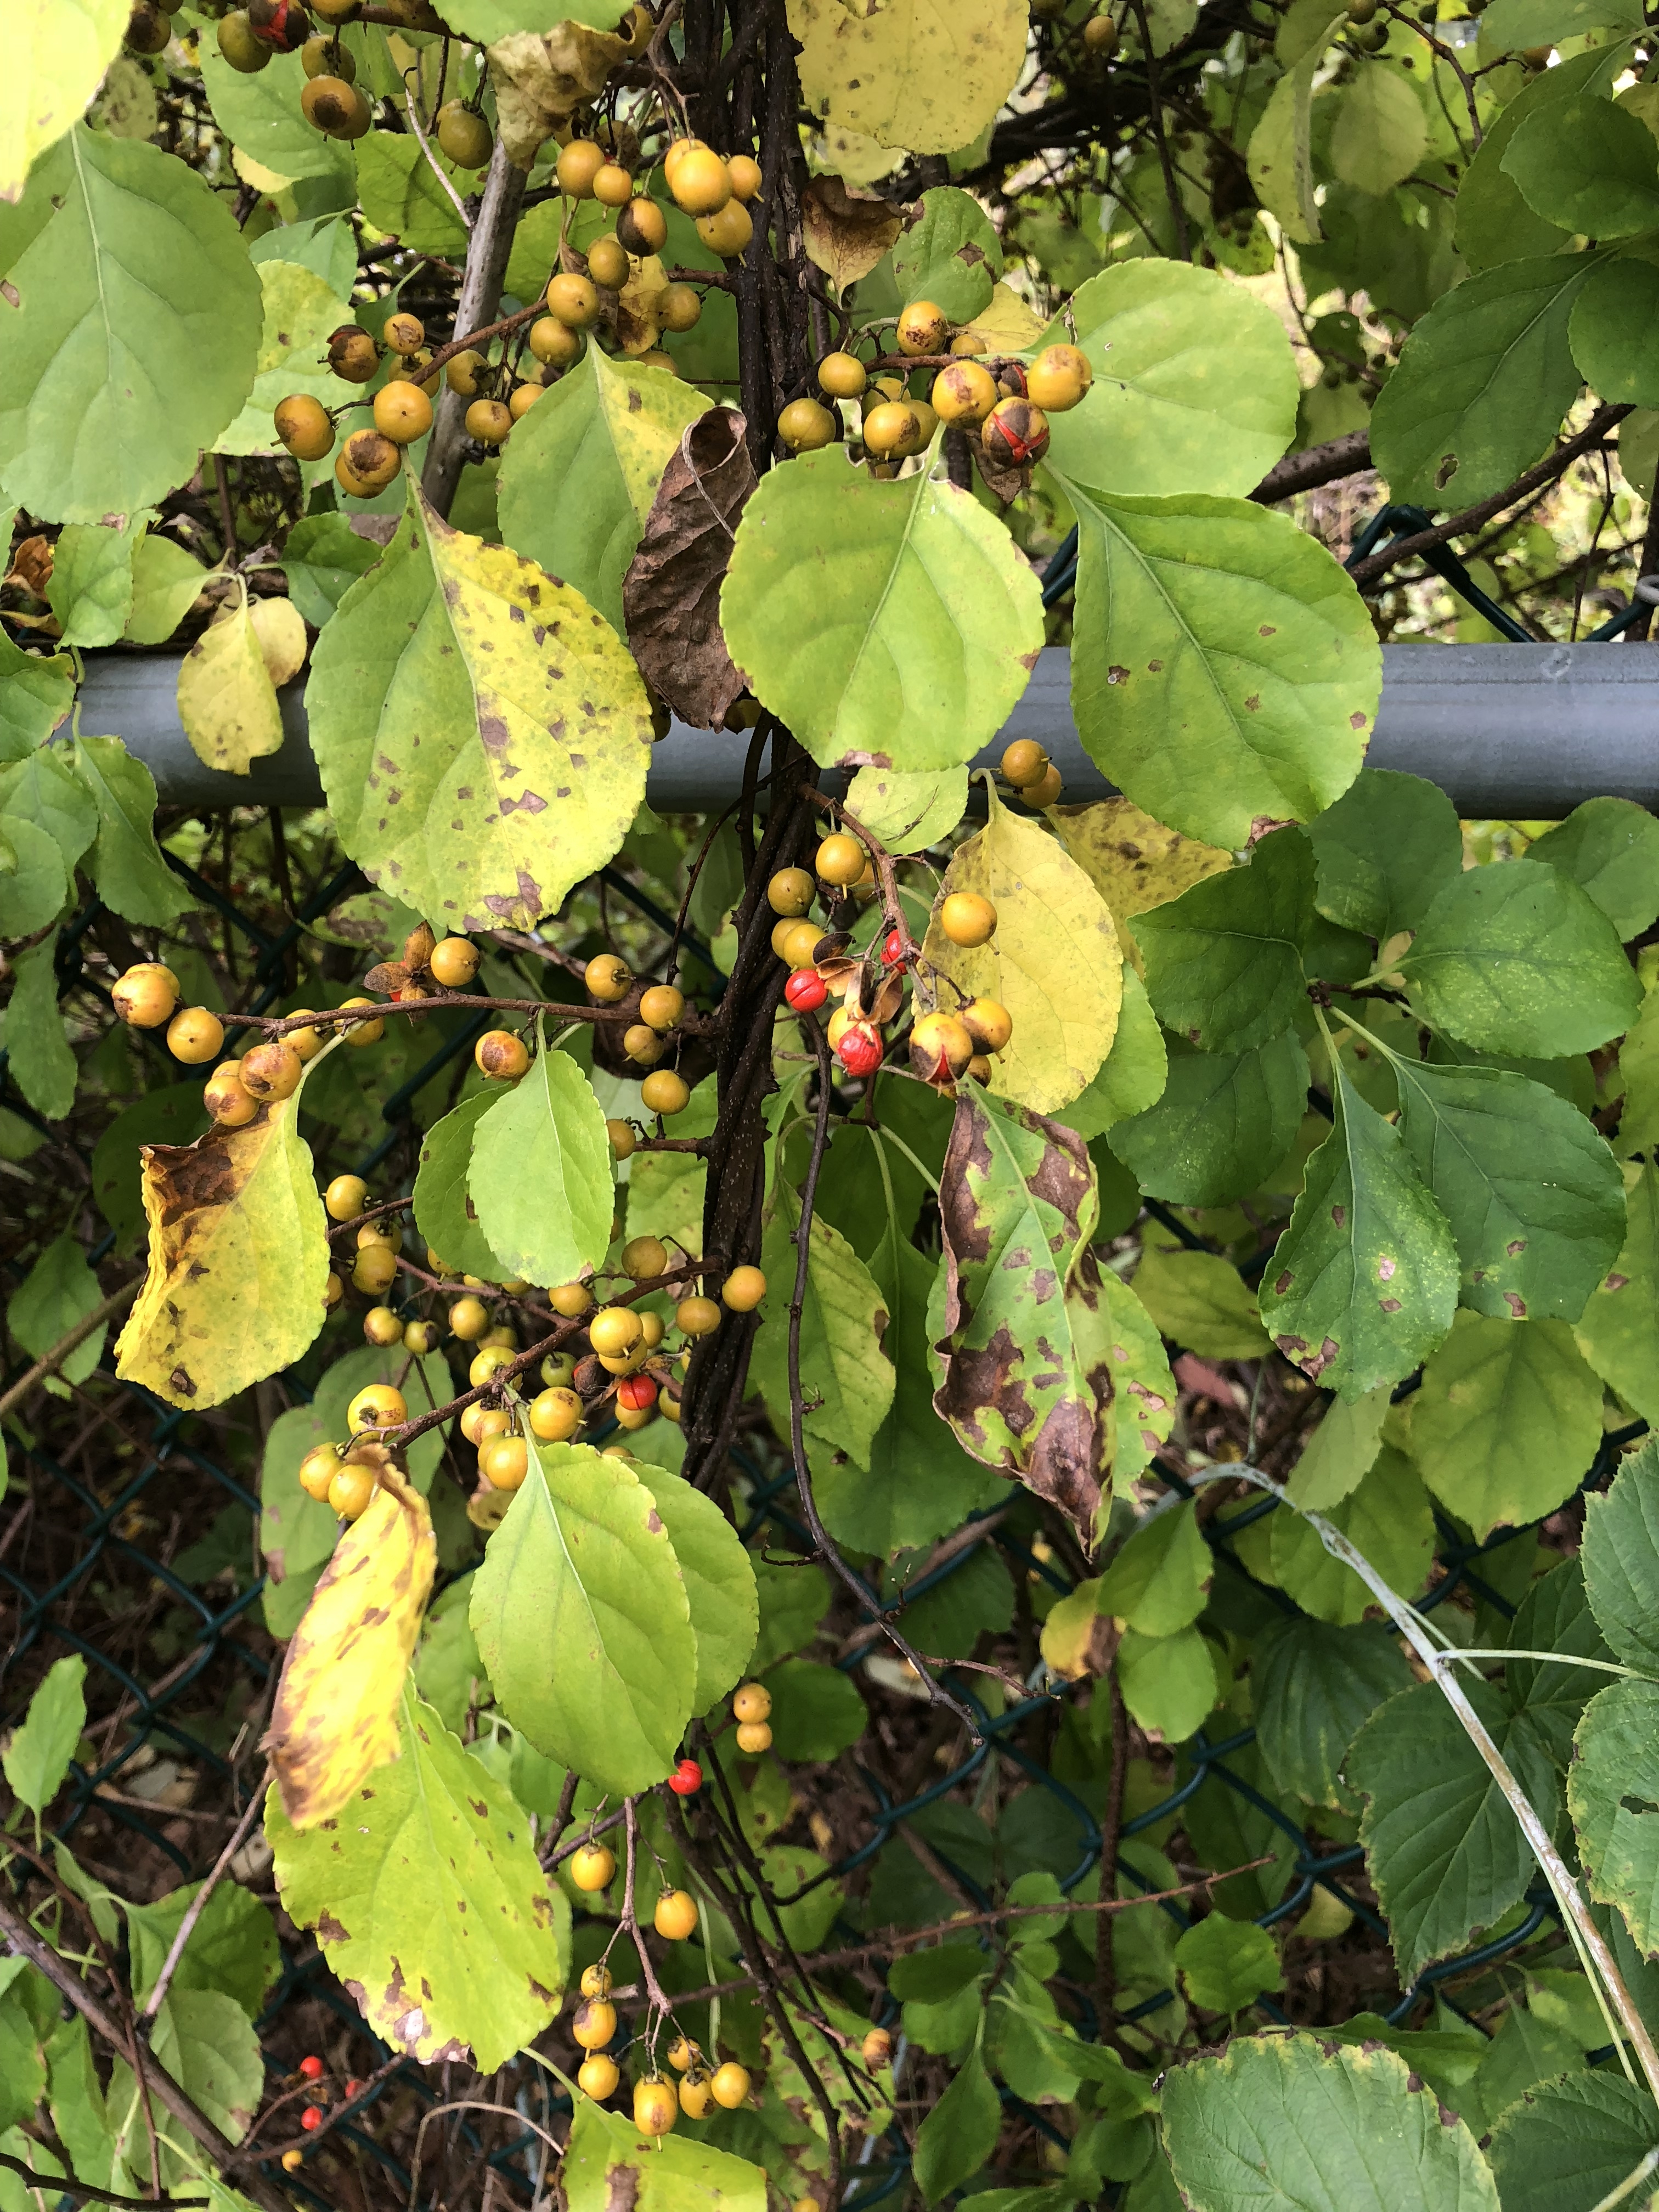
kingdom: Plantae
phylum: Tracheophyta
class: Magnoliopsida
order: Celastrales
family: Celastraceae
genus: Celastrus
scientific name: Celastrus orbiculatus
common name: Oriental Bittersweet
